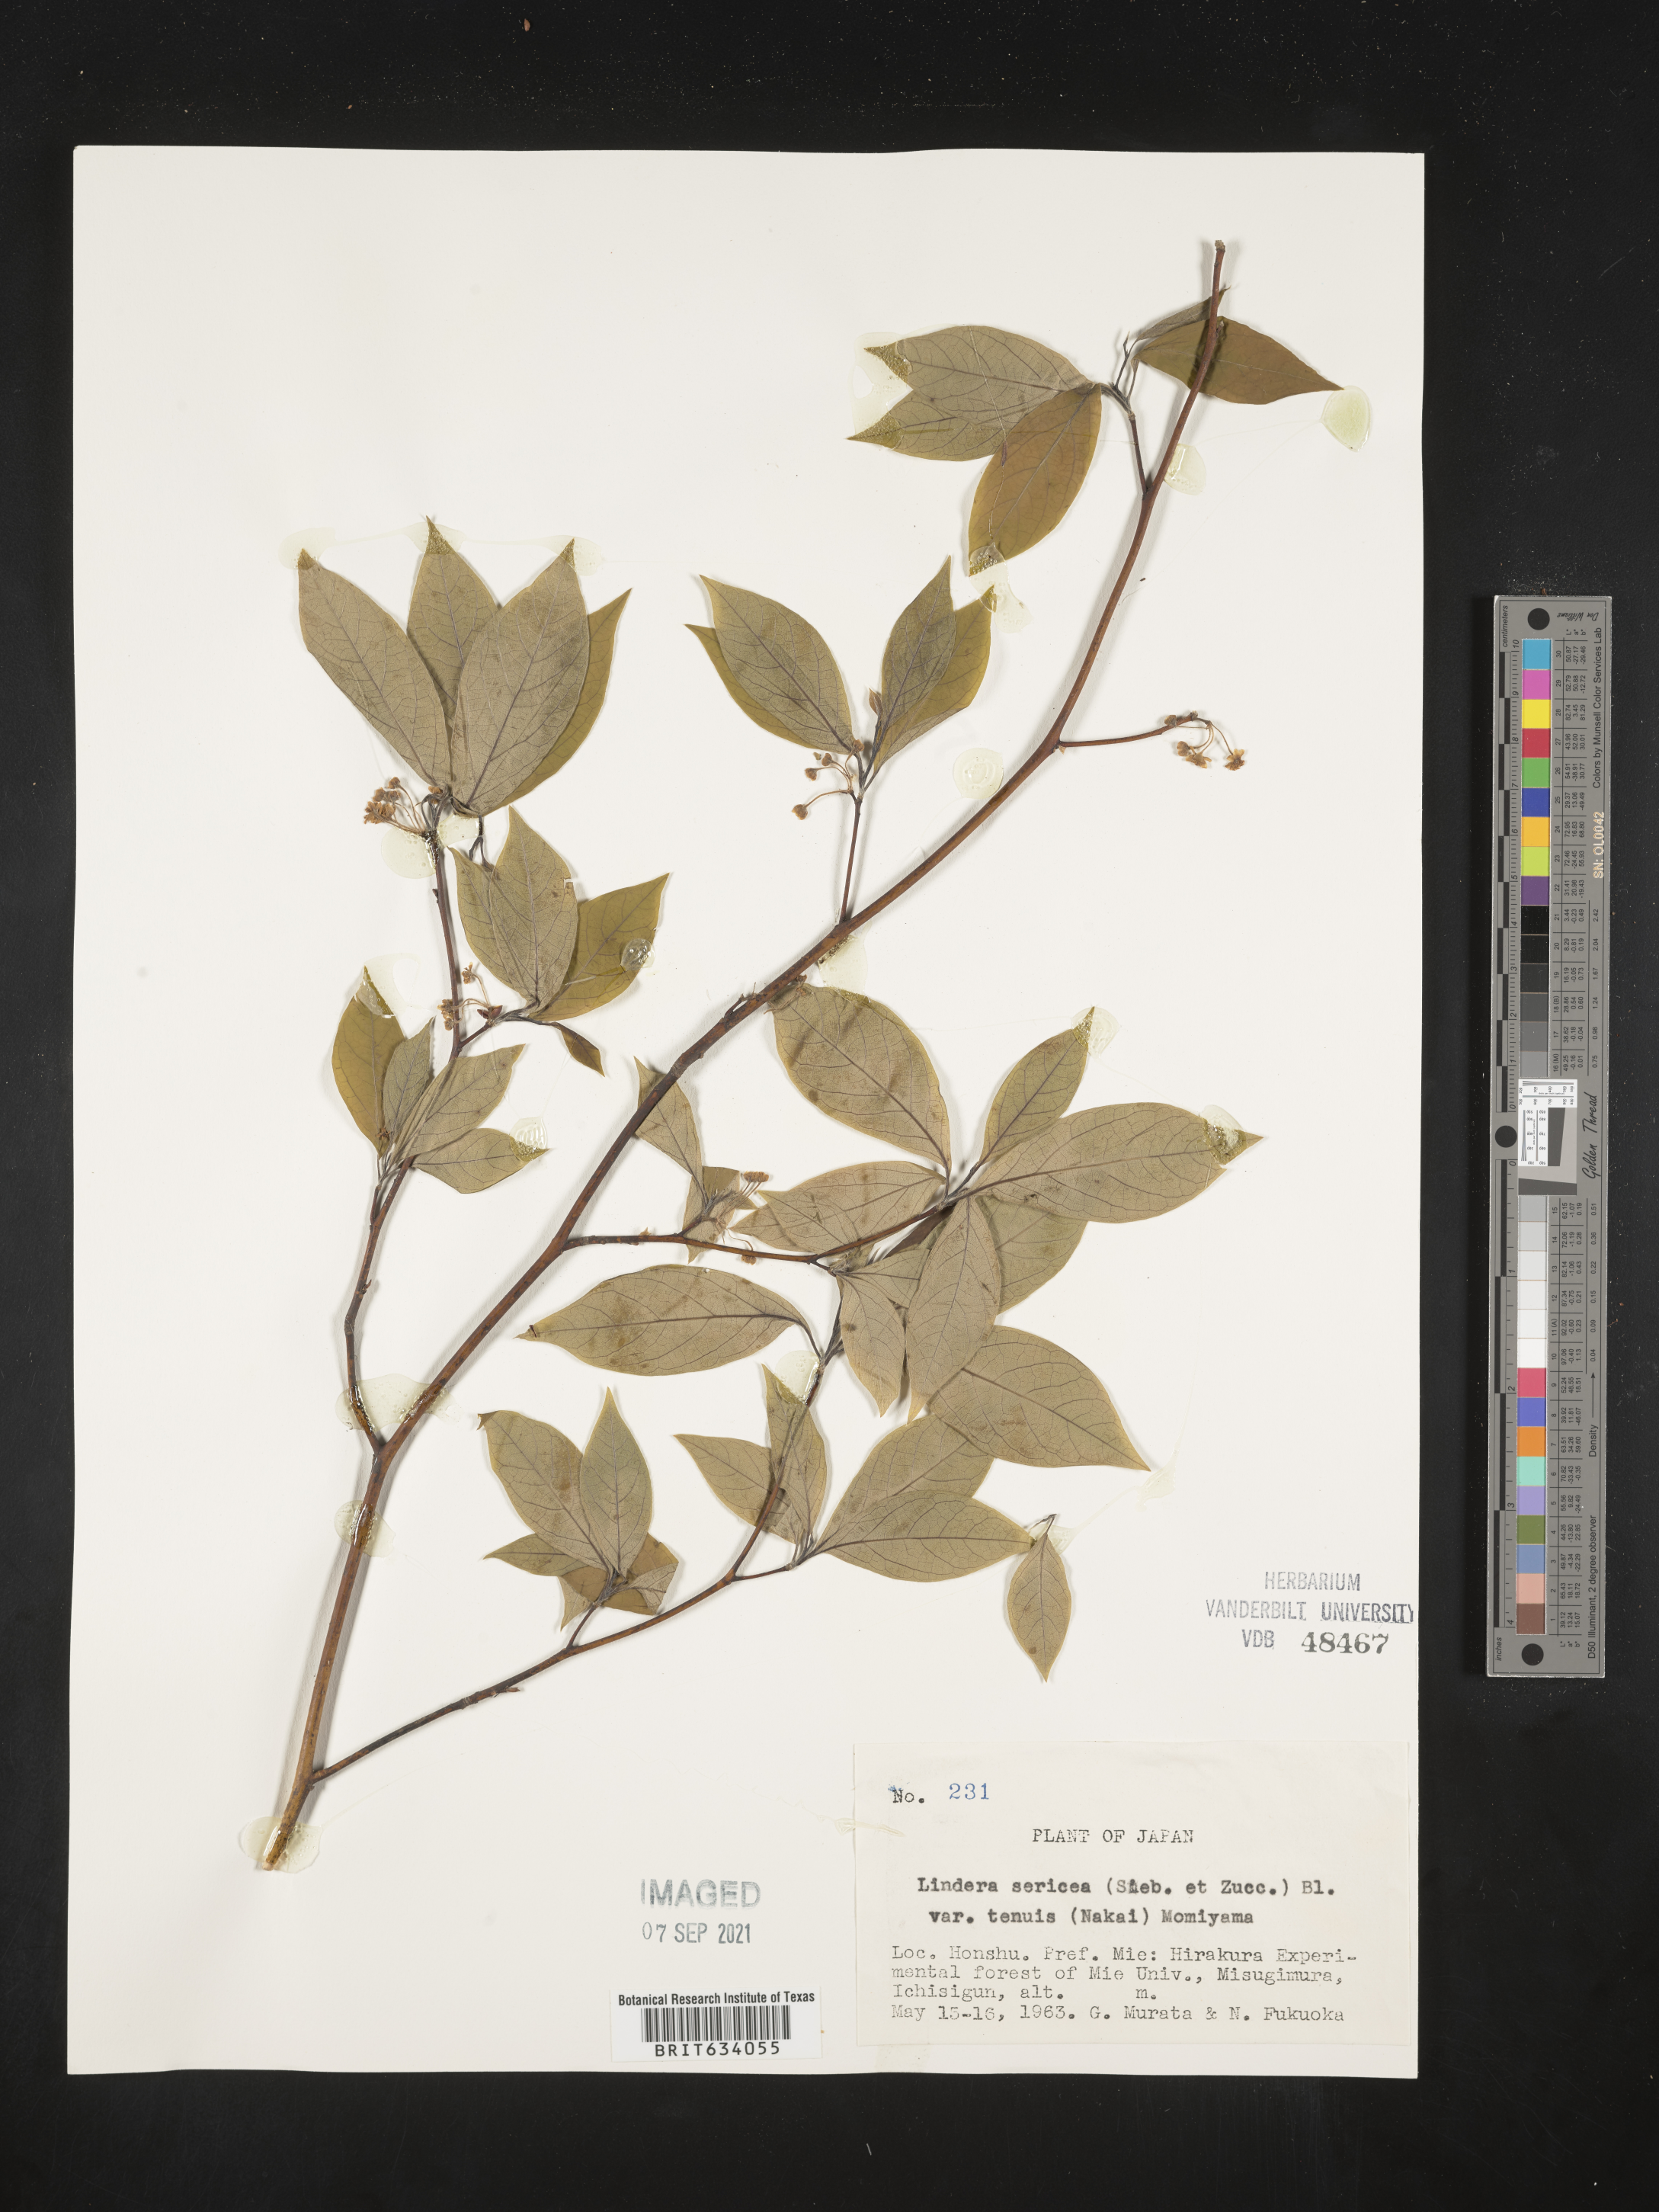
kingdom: Plantae
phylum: Tracheophyta
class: Magnoliopsida
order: Laurales
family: Lauraceae
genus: Lindera
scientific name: Lindera
